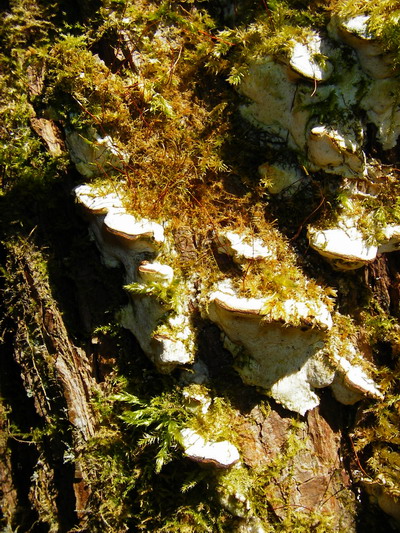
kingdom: Fungi
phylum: Basidiomycota
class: Agaricomycetes
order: Hymenochaetales
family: Oxyporaceae
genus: Oxyporus
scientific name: Oxyporus populinus
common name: sammenvokset trylleporesvamp
